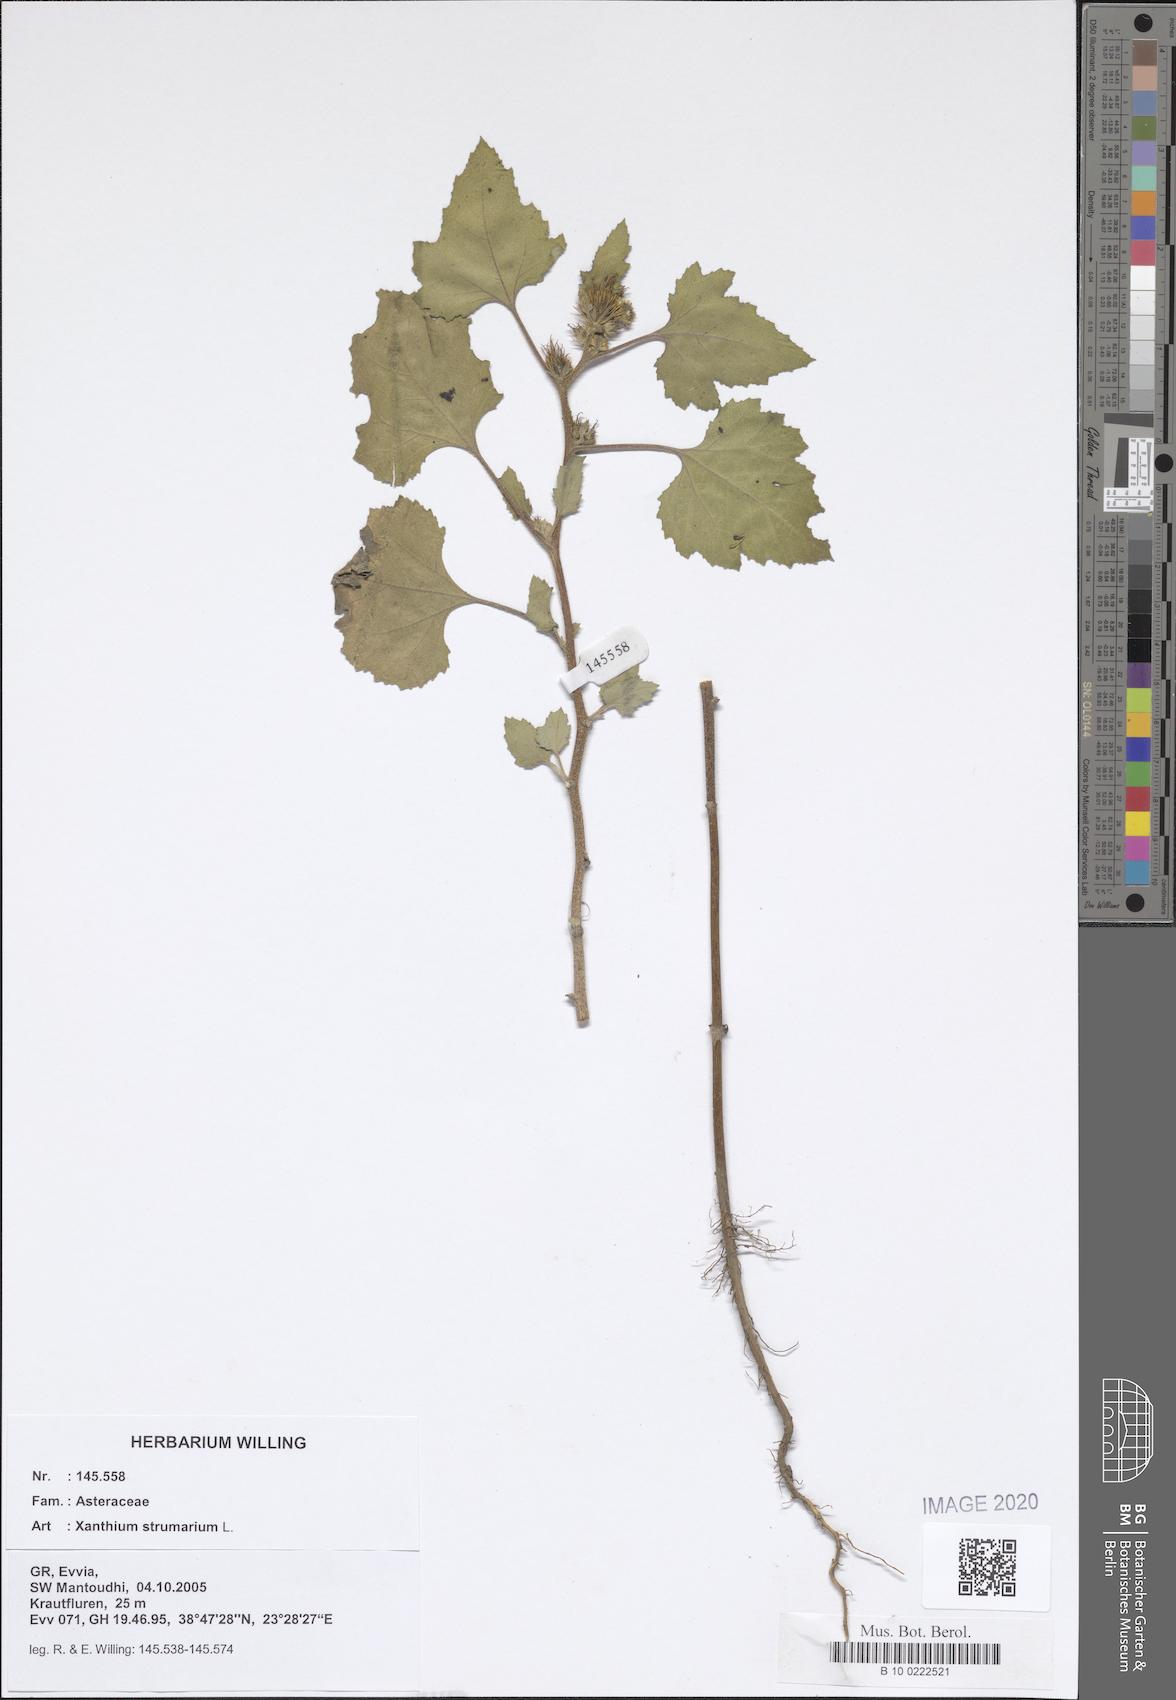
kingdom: Plantae
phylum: Tracheophyta
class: Magnoliopsida
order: Asterales
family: Asteraceae
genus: Xanthium
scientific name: Xanthium strumarium
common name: Rough cocklebur
